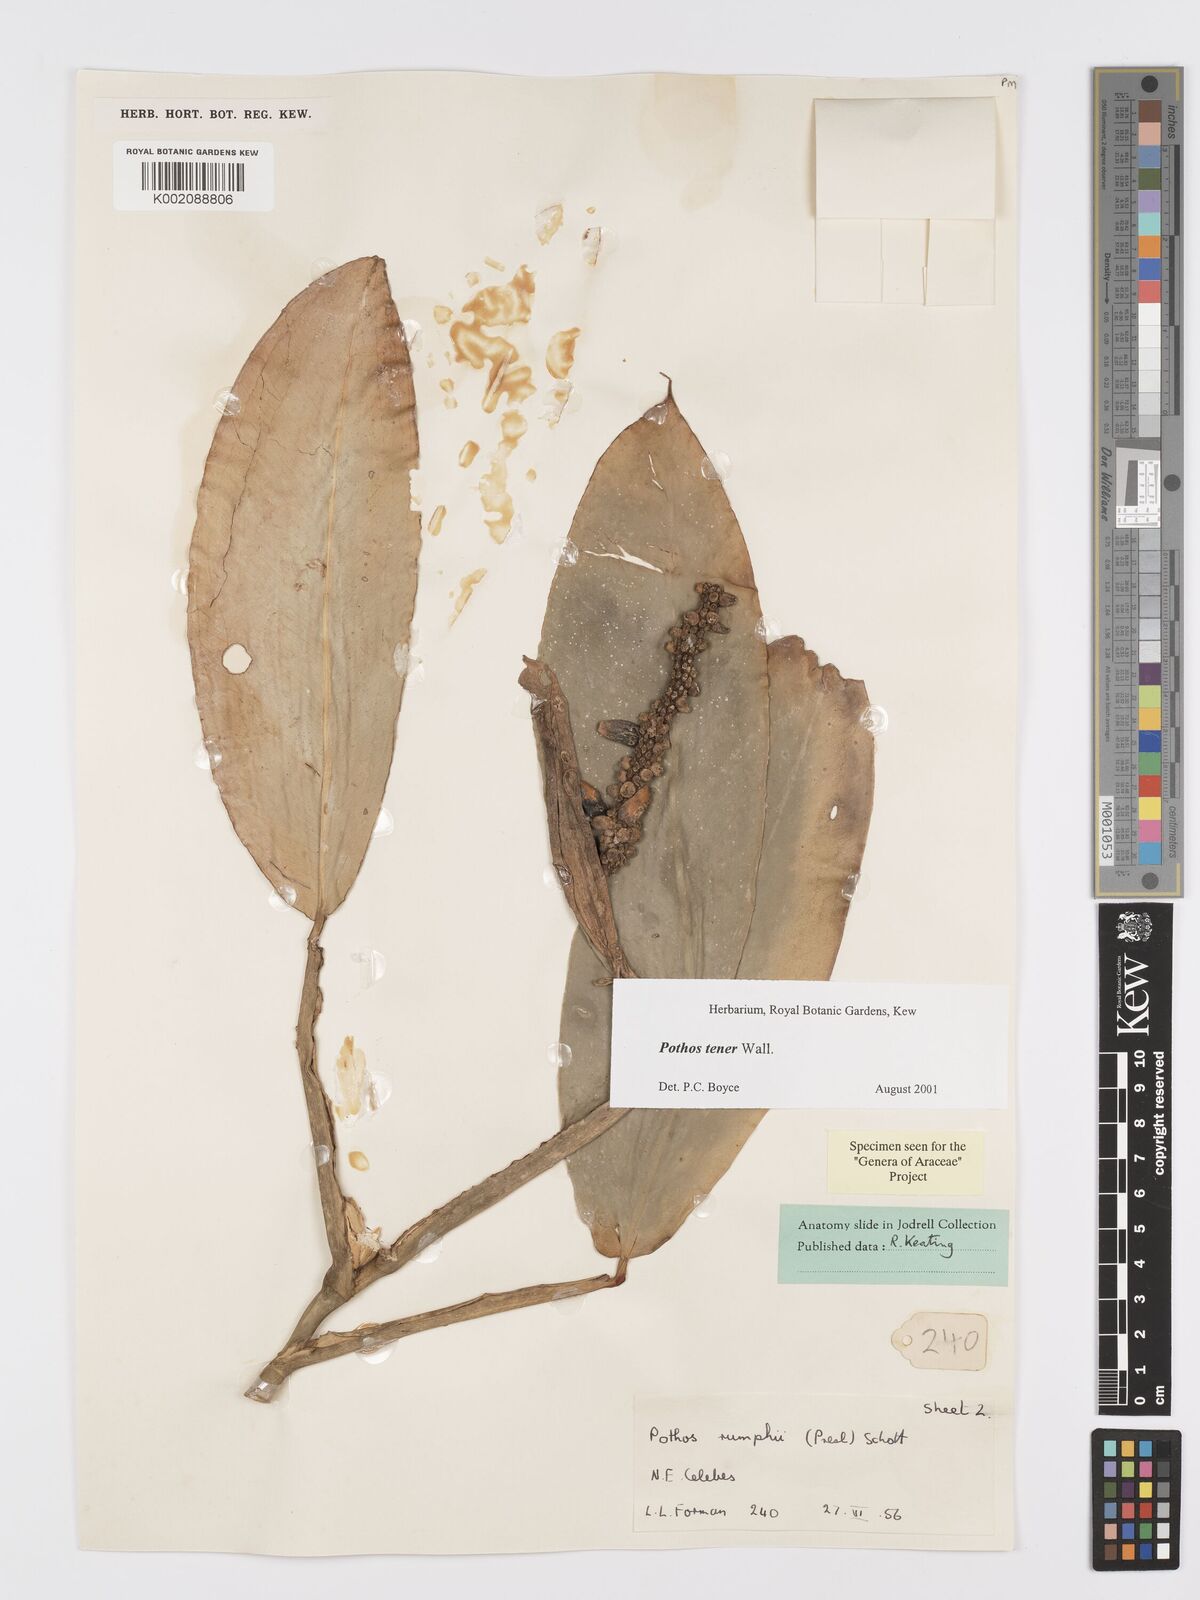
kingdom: Plantae
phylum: Tracheophyta
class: Liliopsida
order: Alismatales
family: Araceae
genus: Pothos
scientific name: Pothos tener
